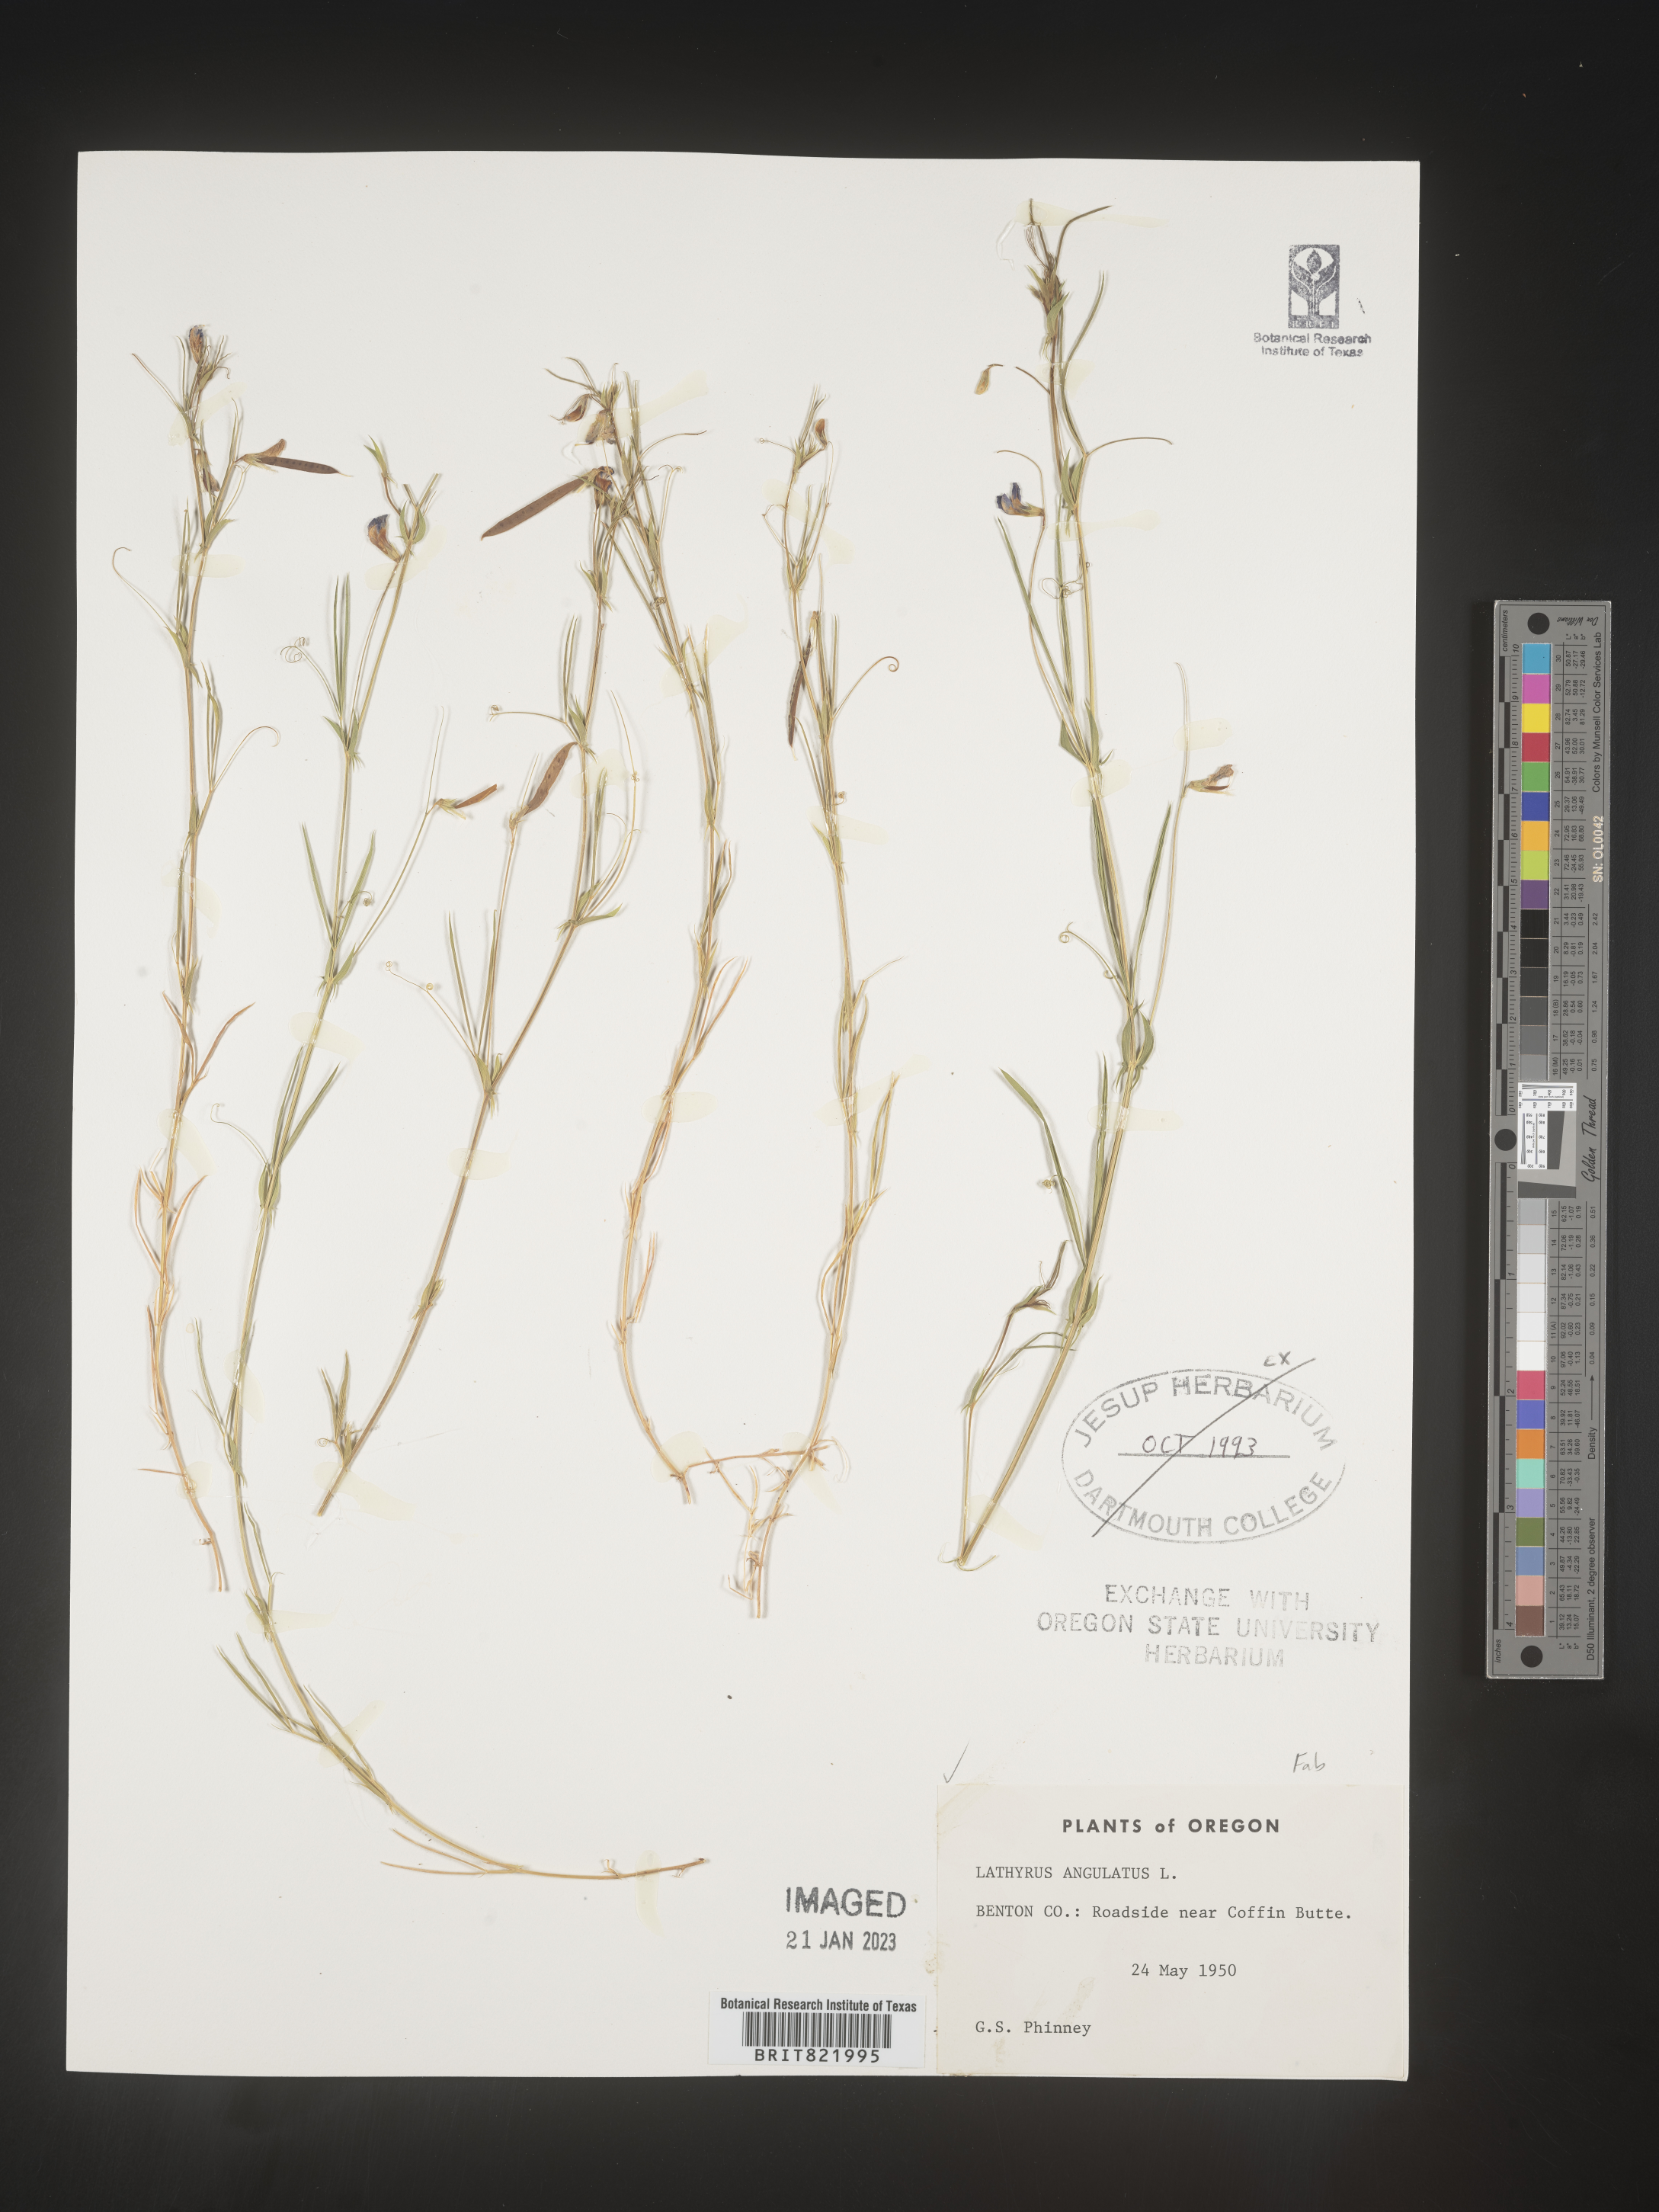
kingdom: Plantae
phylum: Tracheophyta
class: Magnoliopsida
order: Fabales
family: Fabaceae
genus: Lathyrus
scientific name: Lathyrus
